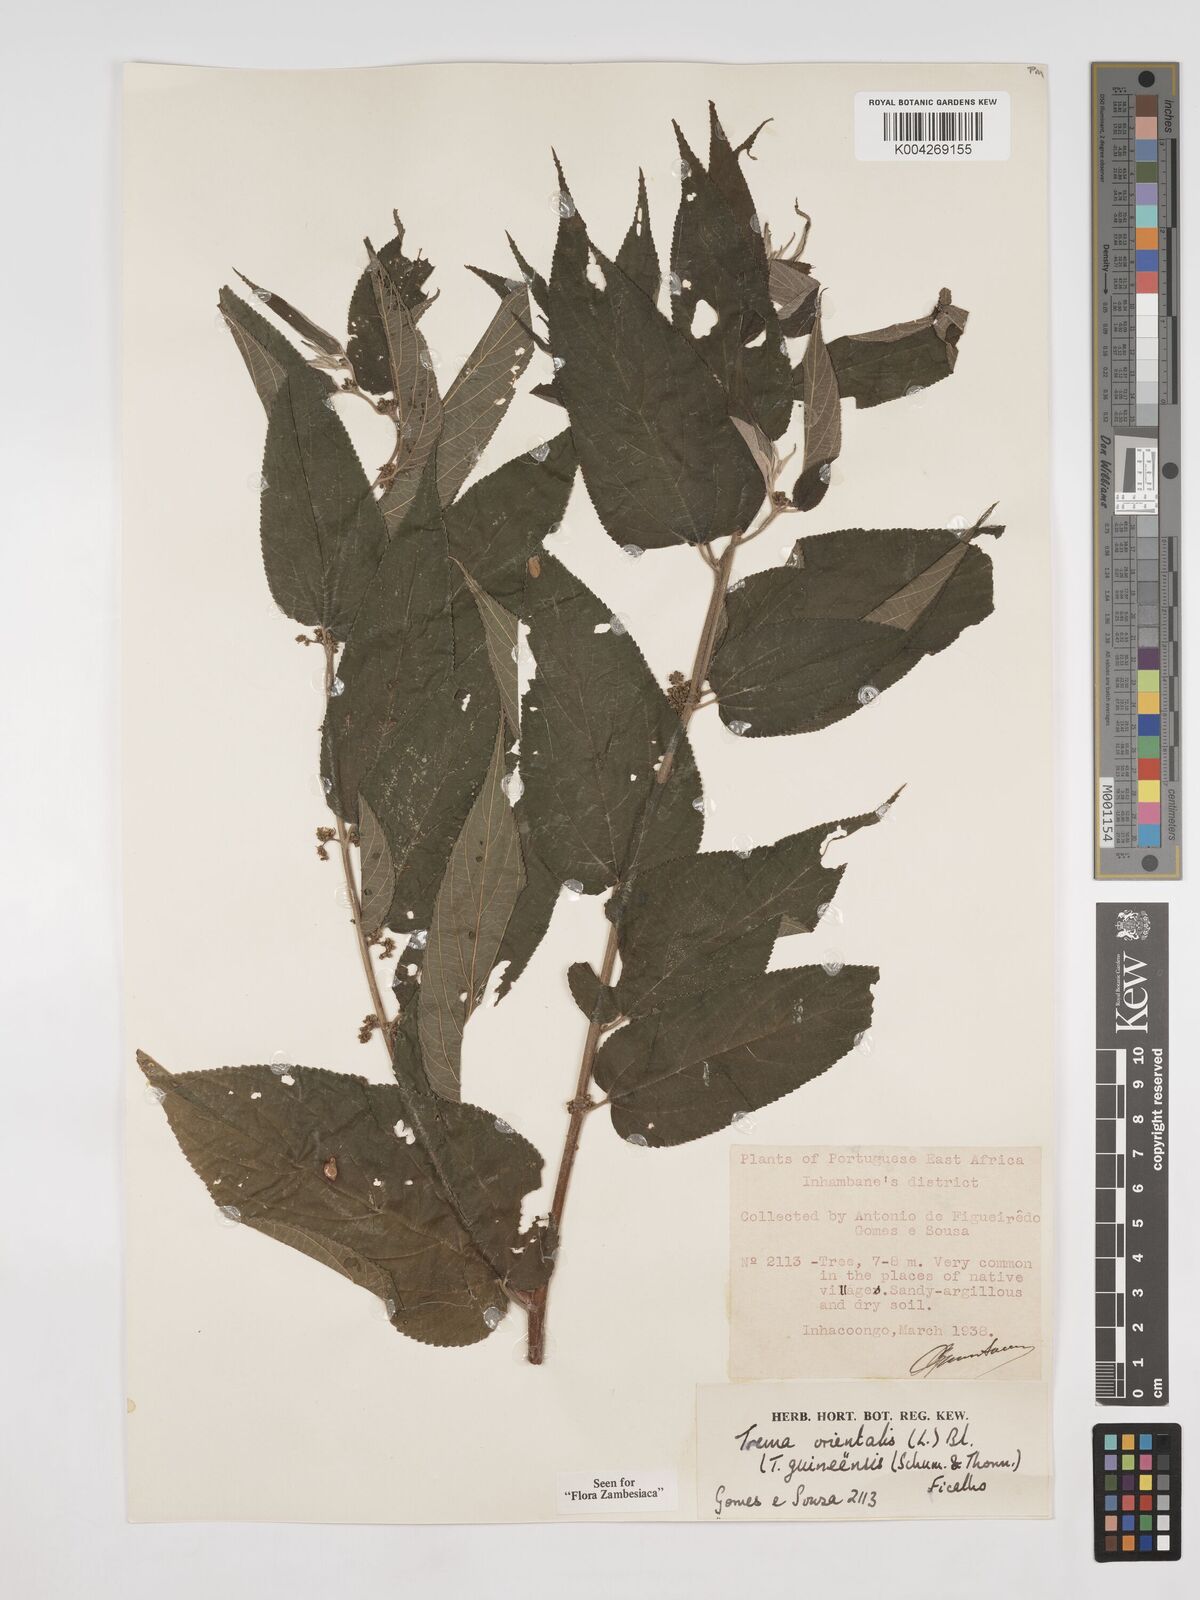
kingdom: Plantae
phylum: Tracheophyta
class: Magnoliopsida
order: Rosales
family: Cannabaceae
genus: Trema
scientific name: Trema orientale
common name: Indian charcoal tree
